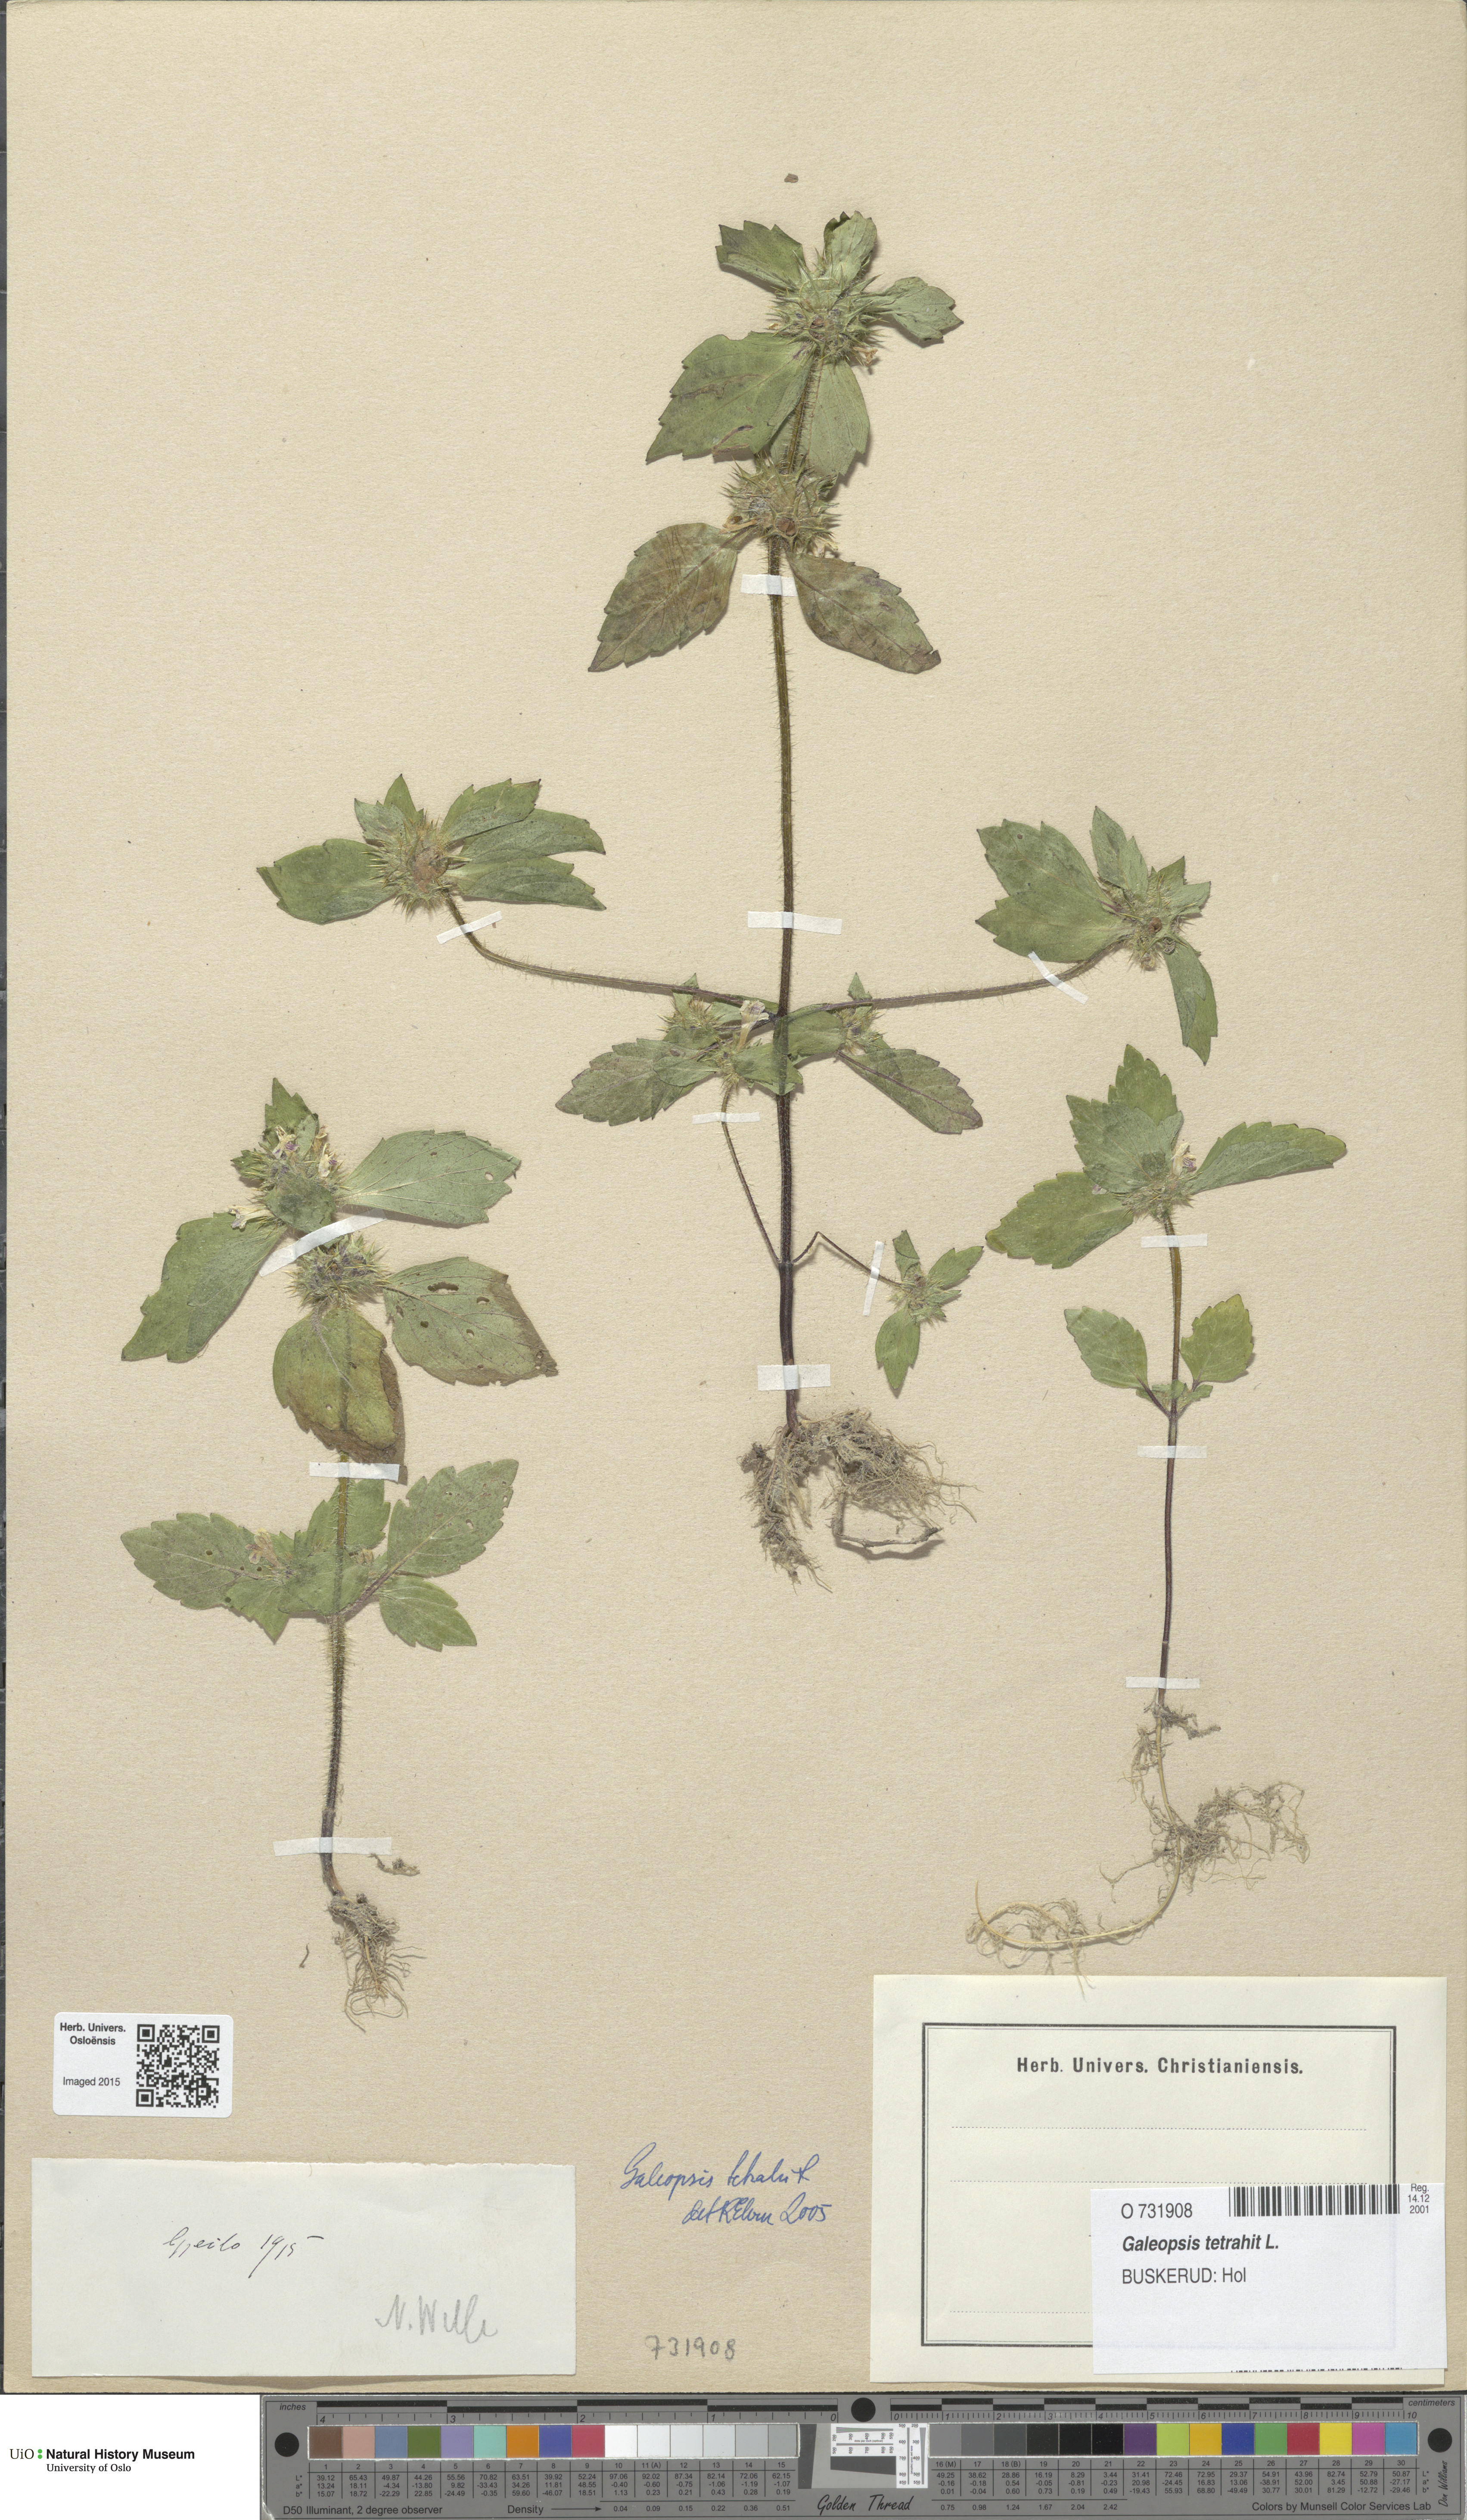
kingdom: Plantae
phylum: Tracheophyta
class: Magnoliopsida
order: Lamiales
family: Lamiaceae
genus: Galeopsis
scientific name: Galeopsis tetrahit
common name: Common hemp-nettle
